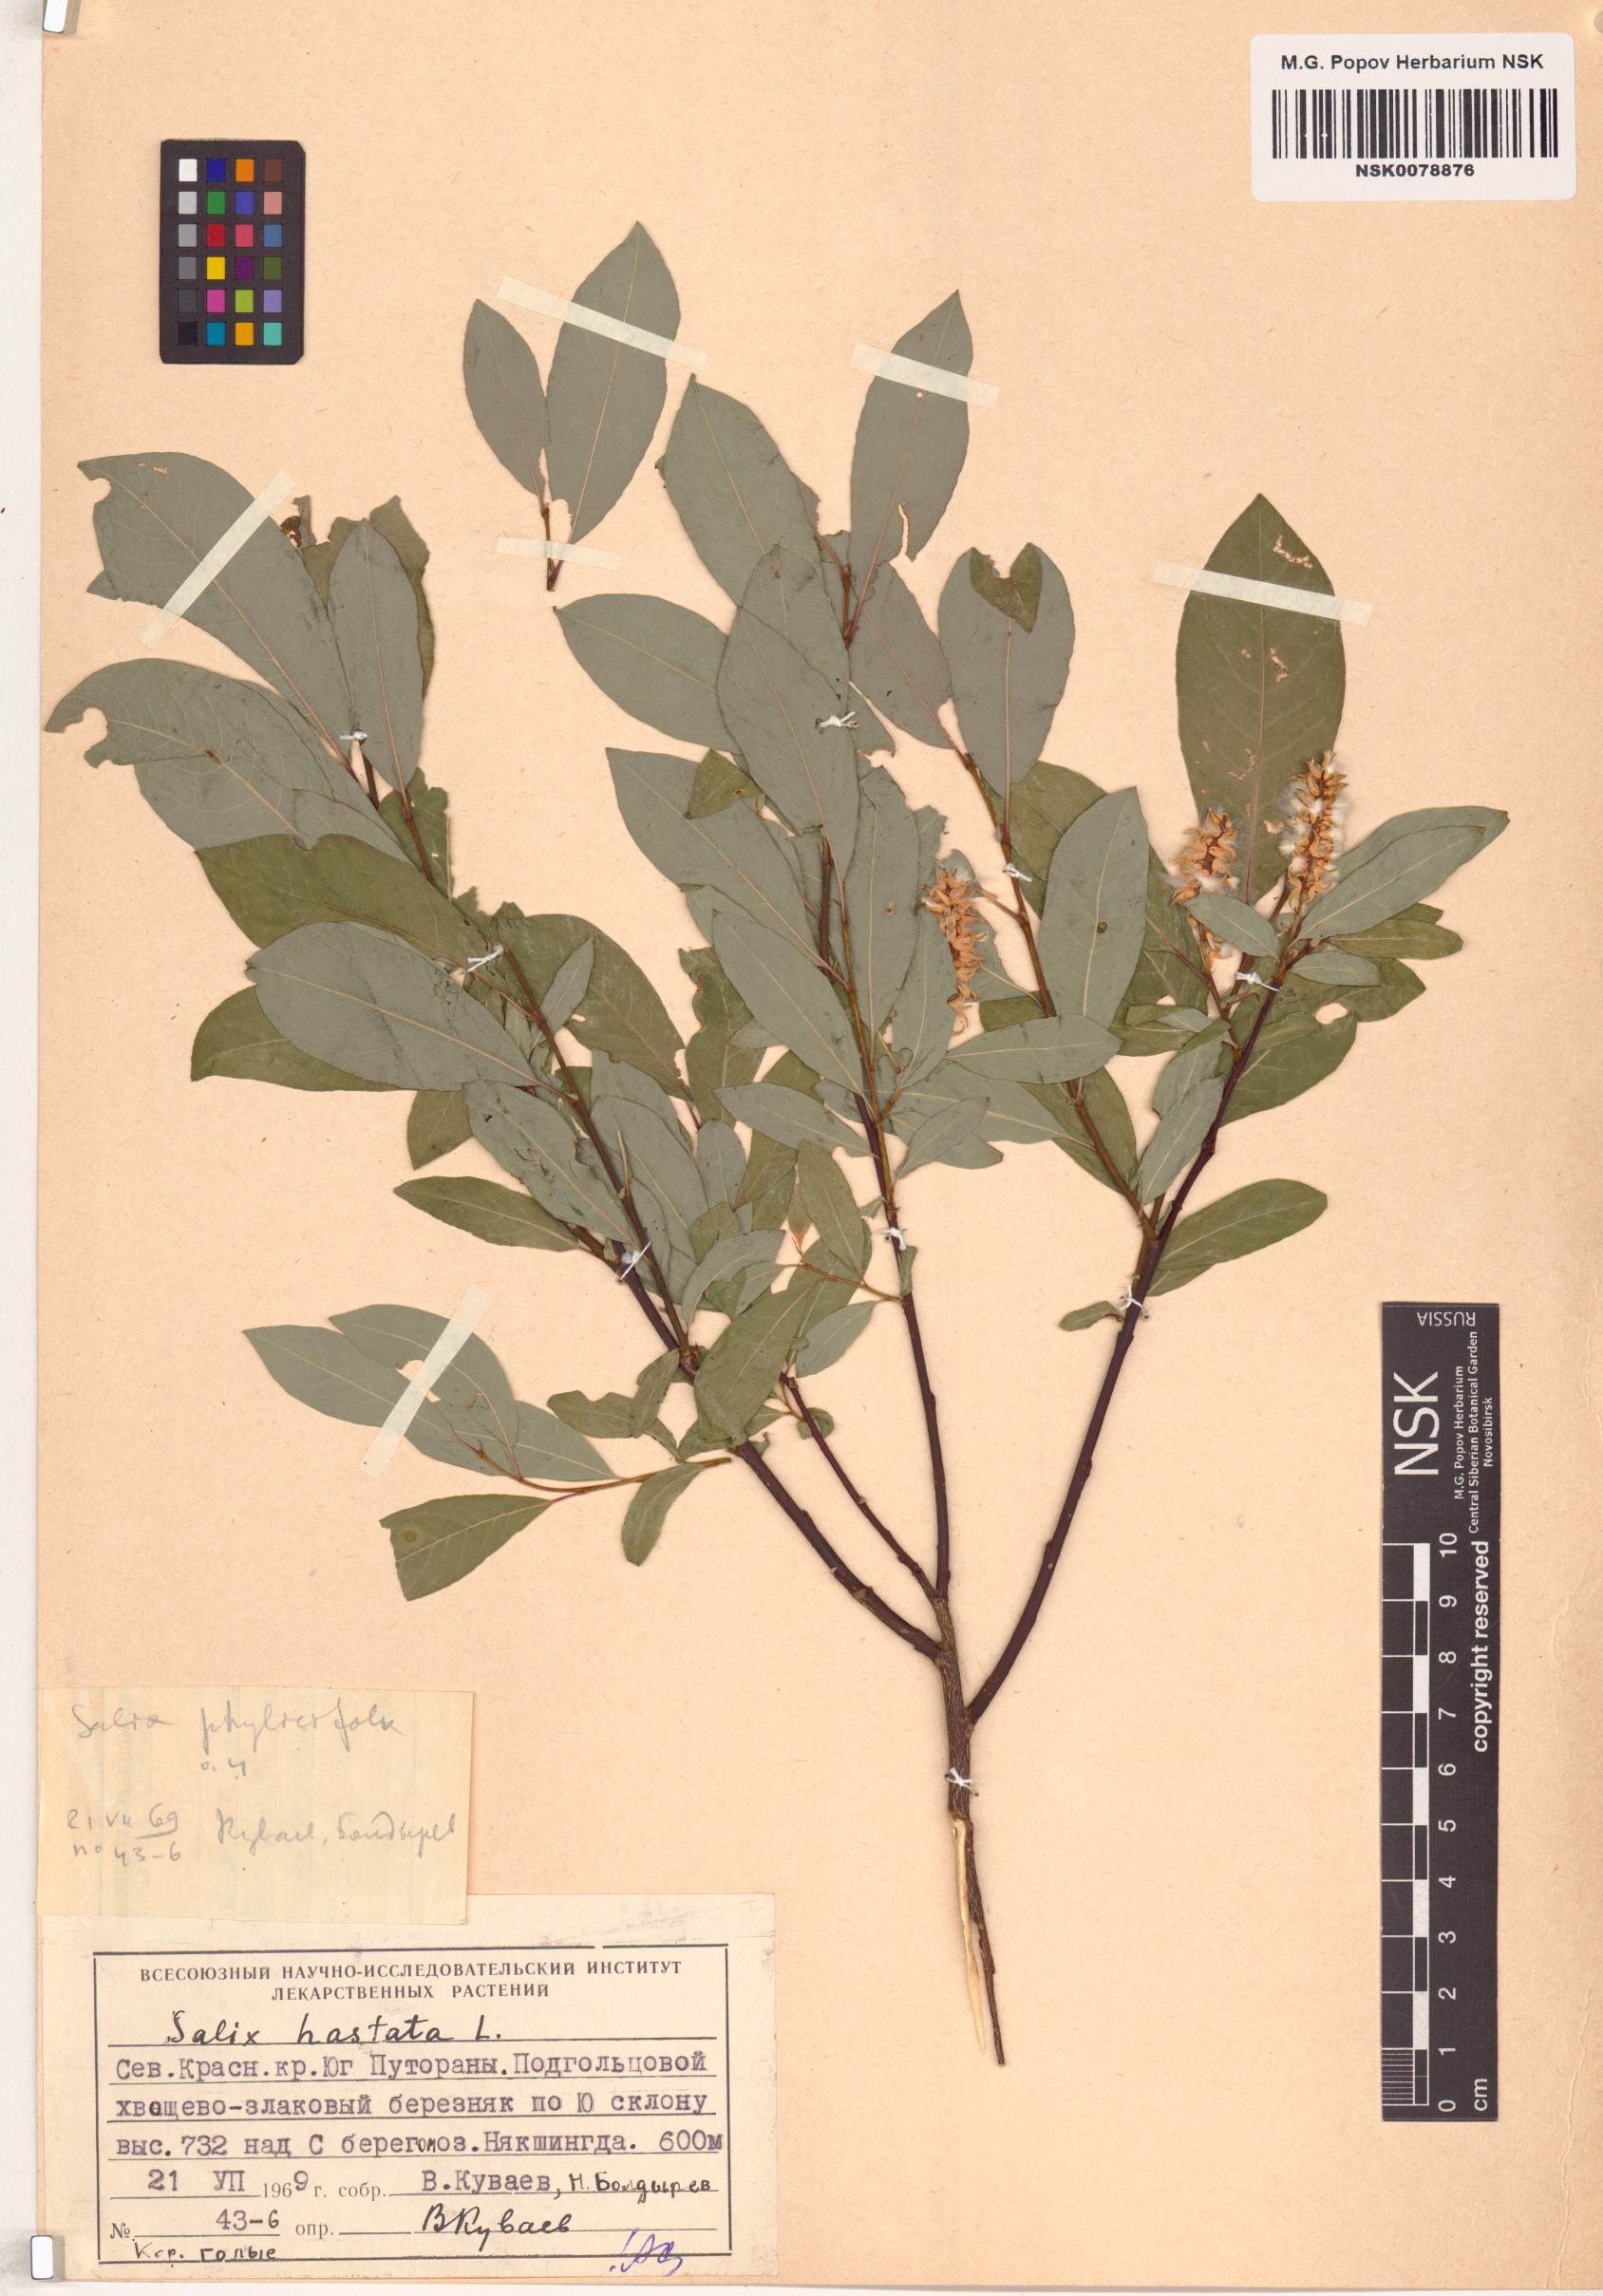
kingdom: Plantae
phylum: Tracheophyta
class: Magnoliopsida
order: Malpighiales
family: Salicaceae
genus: Salix
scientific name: Salix hastata
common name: Halberd willow
